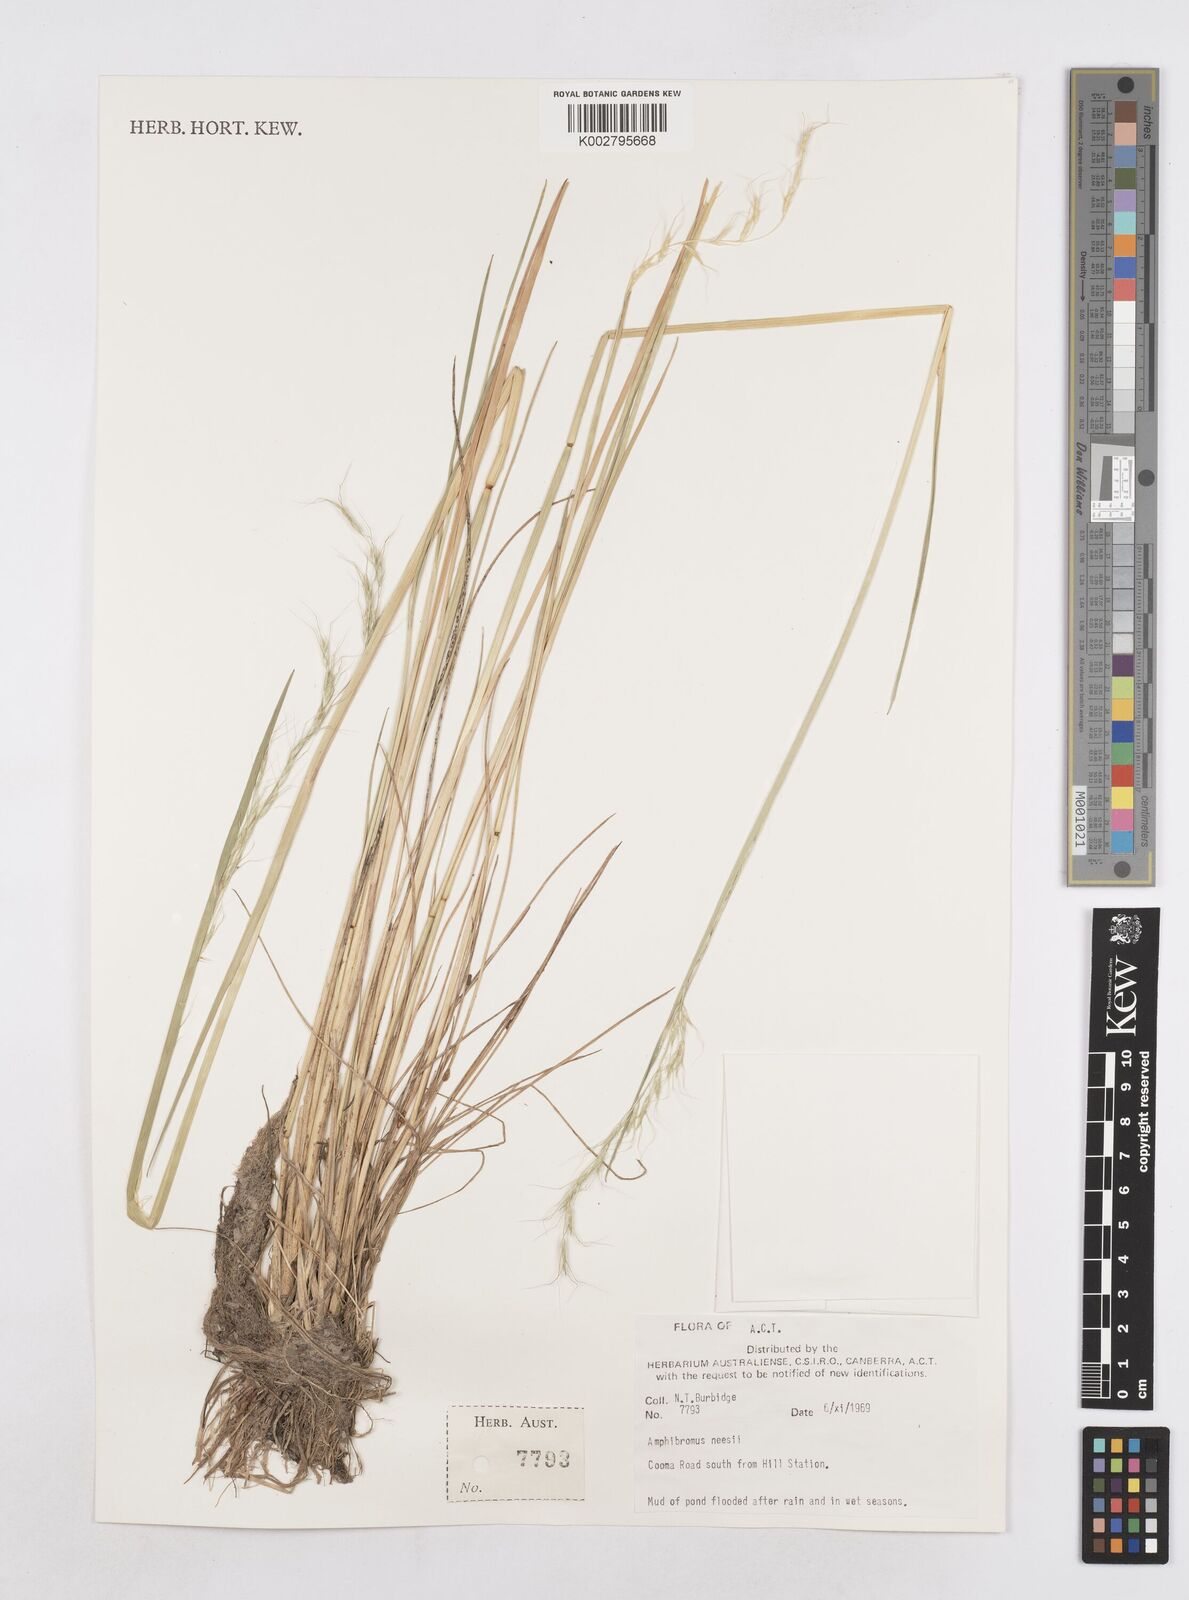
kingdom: Plantae
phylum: Tracheophyta
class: Liliopsida
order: Poales
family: Poaceae
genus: Amphibromus
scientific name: Amphibromus neesii
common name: Australian wallaby grass
